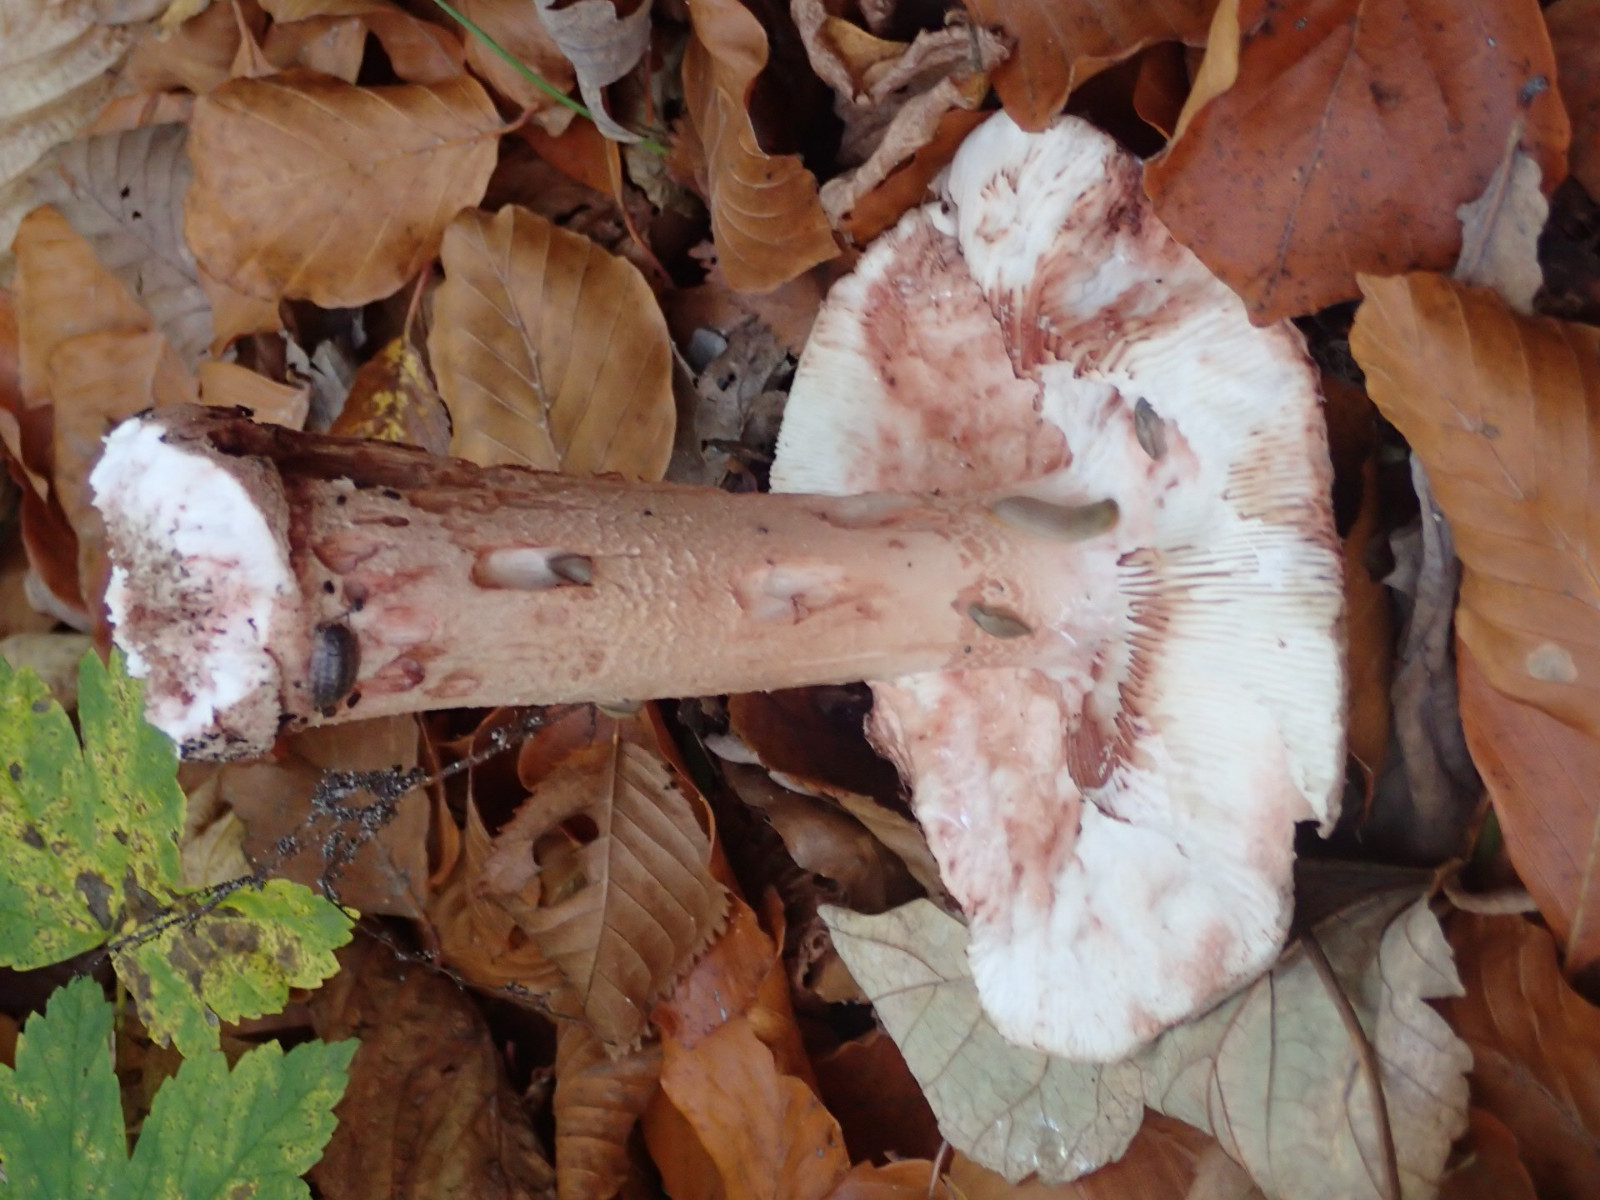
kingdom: Fungi
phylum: Basidiomycota
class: Agaricomycetes
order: Agaricales
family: Amanitaceae
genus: Amanita
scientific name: Amanita rubescens
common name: rødmende fluesvamp
